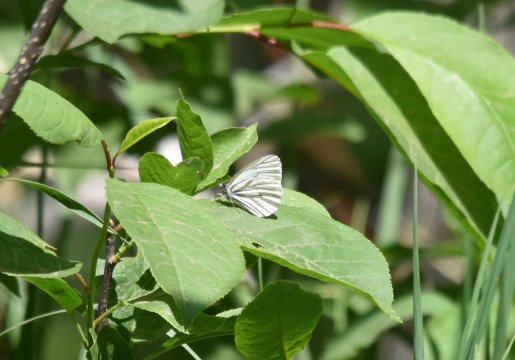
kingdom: Animalia
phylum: Arthropoda
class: Insecta
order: Lepidoptera
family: Pieridae
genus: Pieris
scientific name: Pieris oleracea
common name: Mustard White
